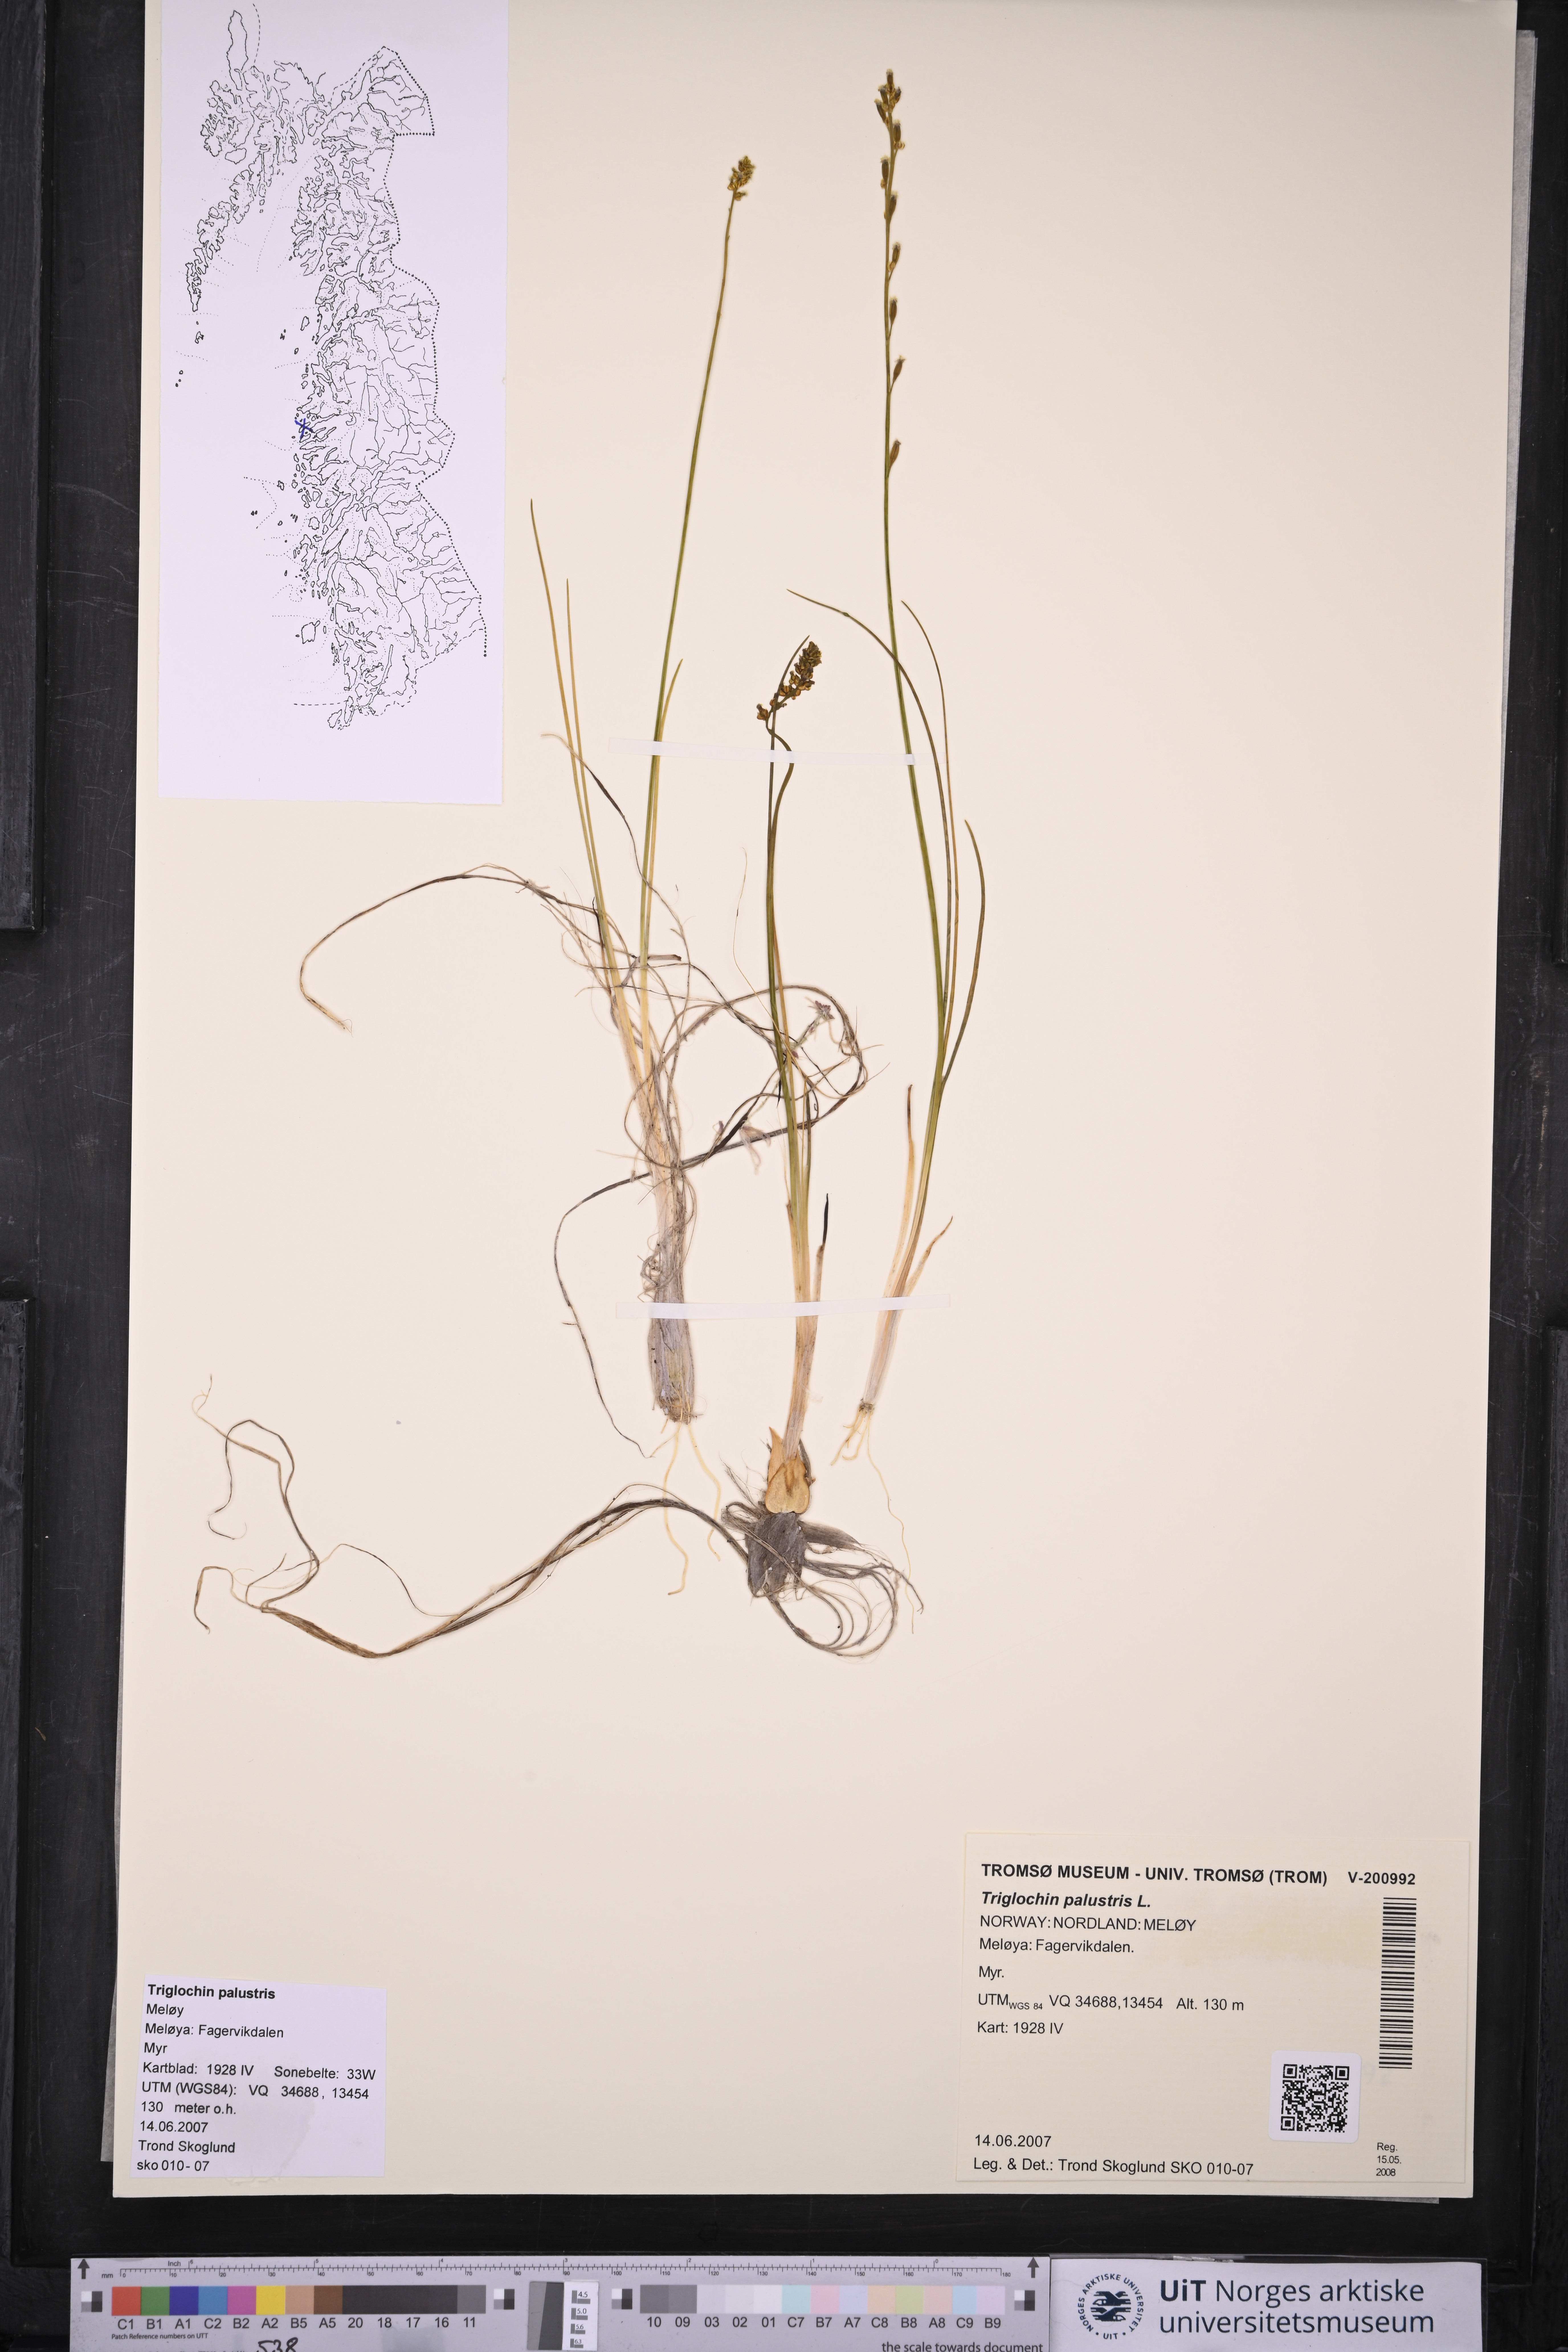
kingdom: Plantae
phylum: Tracheophyta
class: Liliopsida
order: Alismatales
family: Juncaginaceae
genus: Triglochin
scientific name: Triglochin palustris
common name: Marsh arrowgrass
